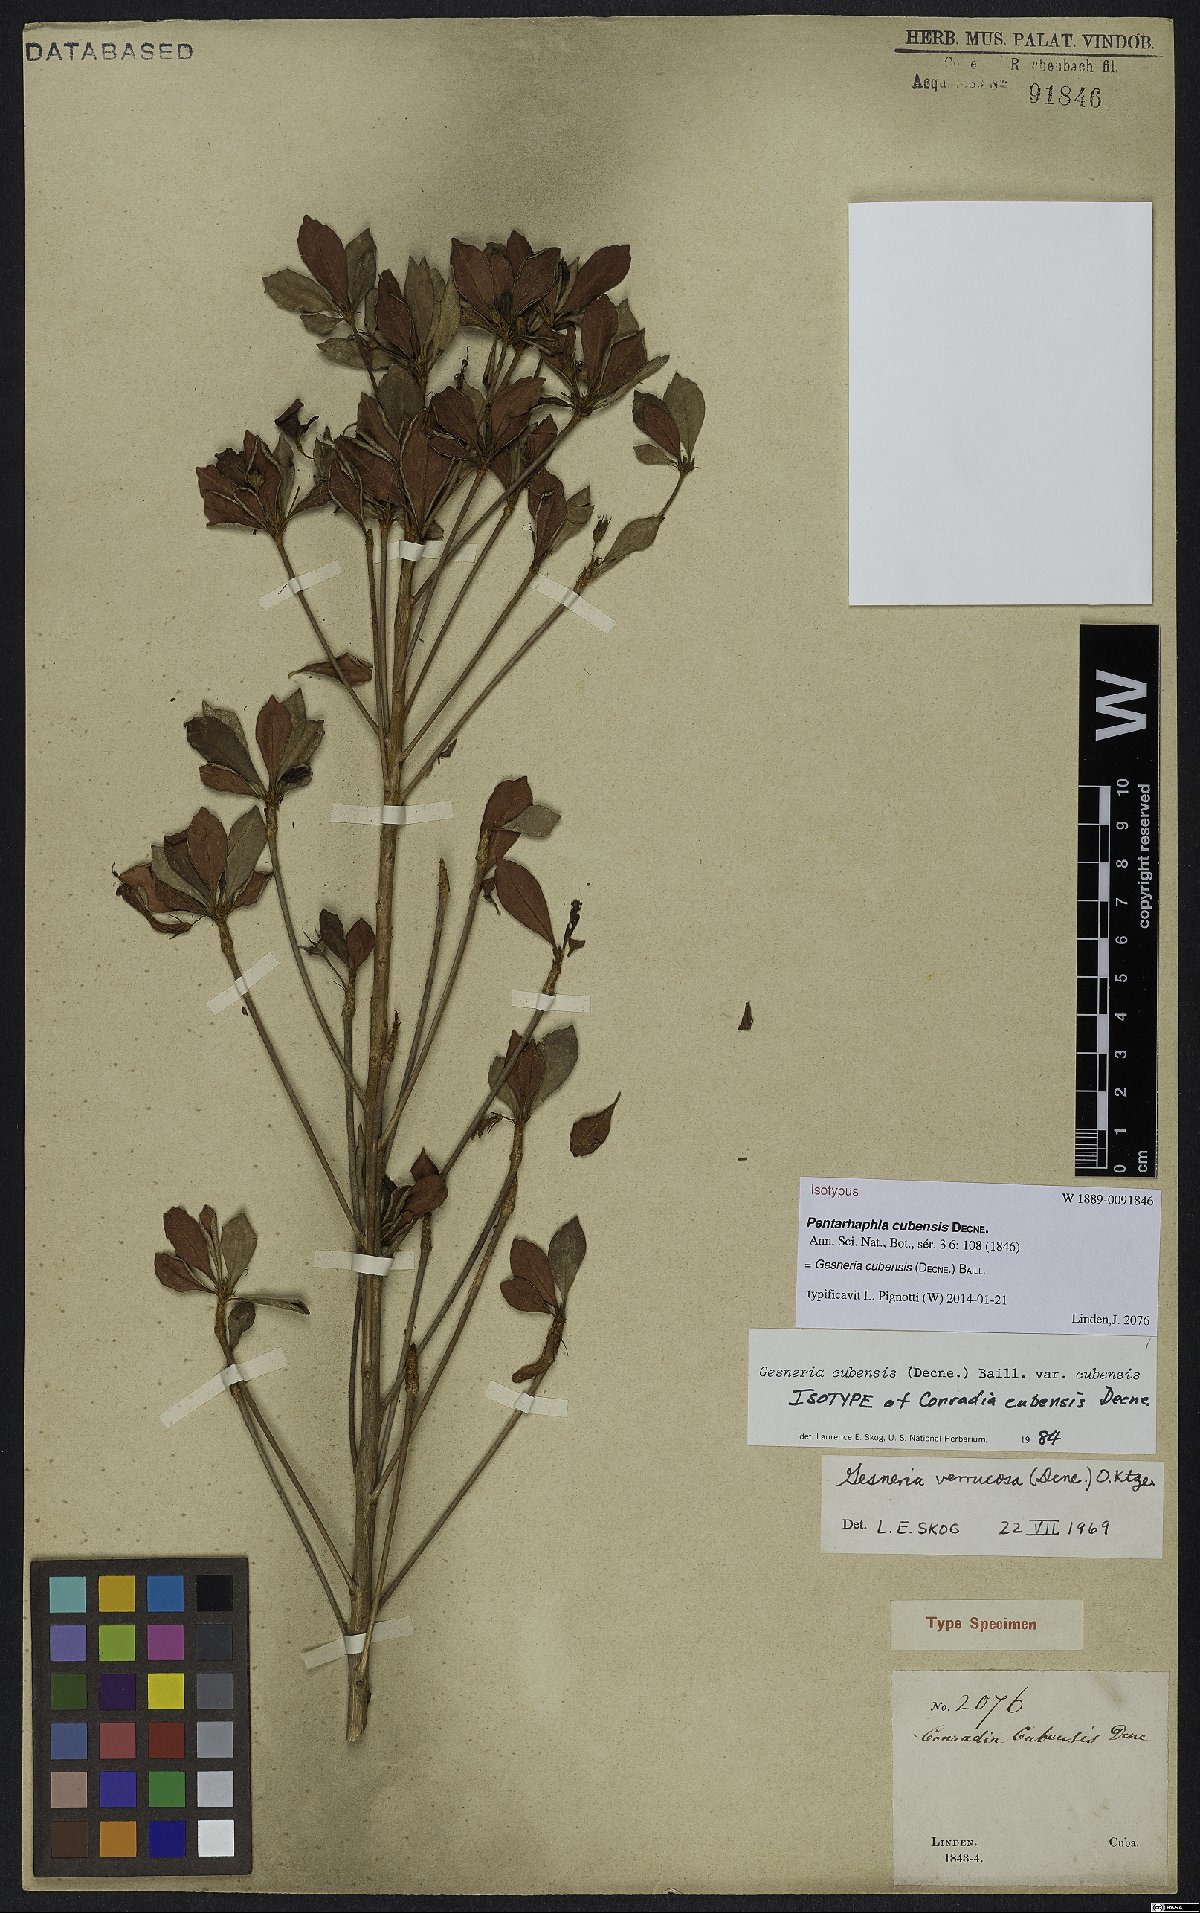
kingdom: Plantae
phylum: Tracheophyta
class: Magnoliopsida
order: Lamiales
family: Gesneriaceae
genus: Gesneria
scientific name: Gesneria cubensis
